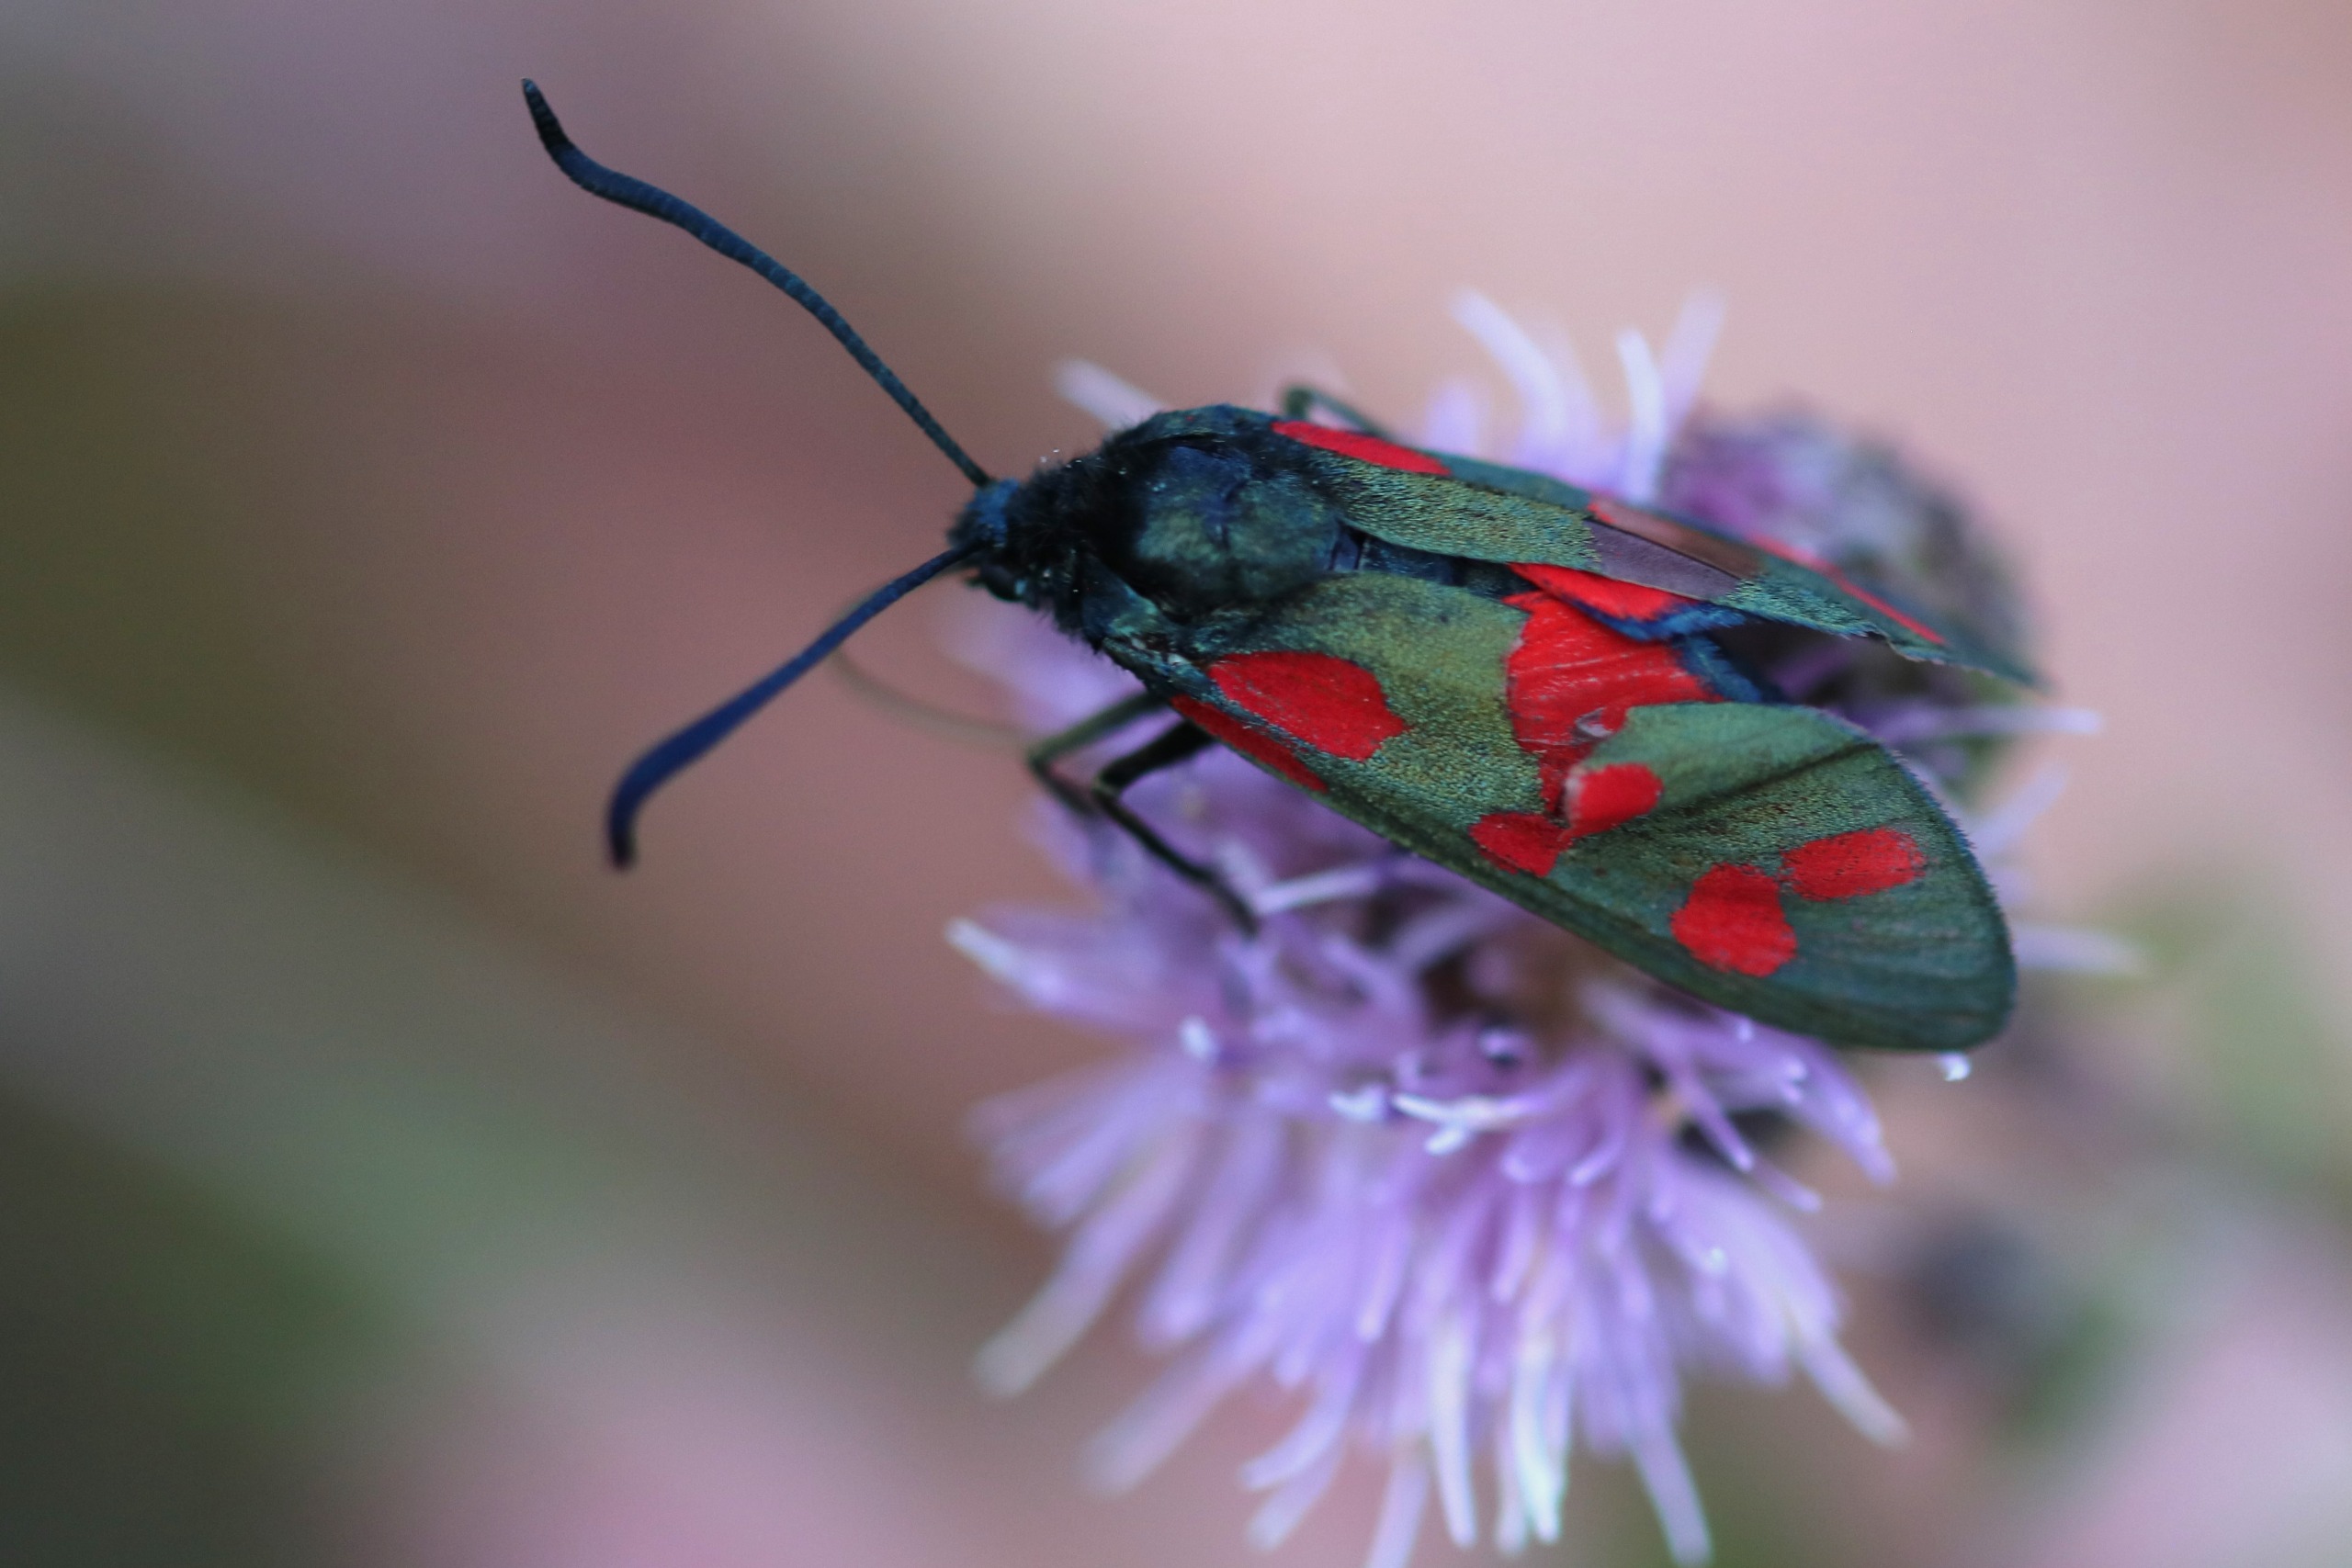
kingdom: Animalia
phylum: Arthropoda
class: Insecta
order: Lepidoptera
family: Zygaenidae
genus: Zygaena
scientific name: Zygaena filipendulae
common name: Seksplettet køllesværmer
